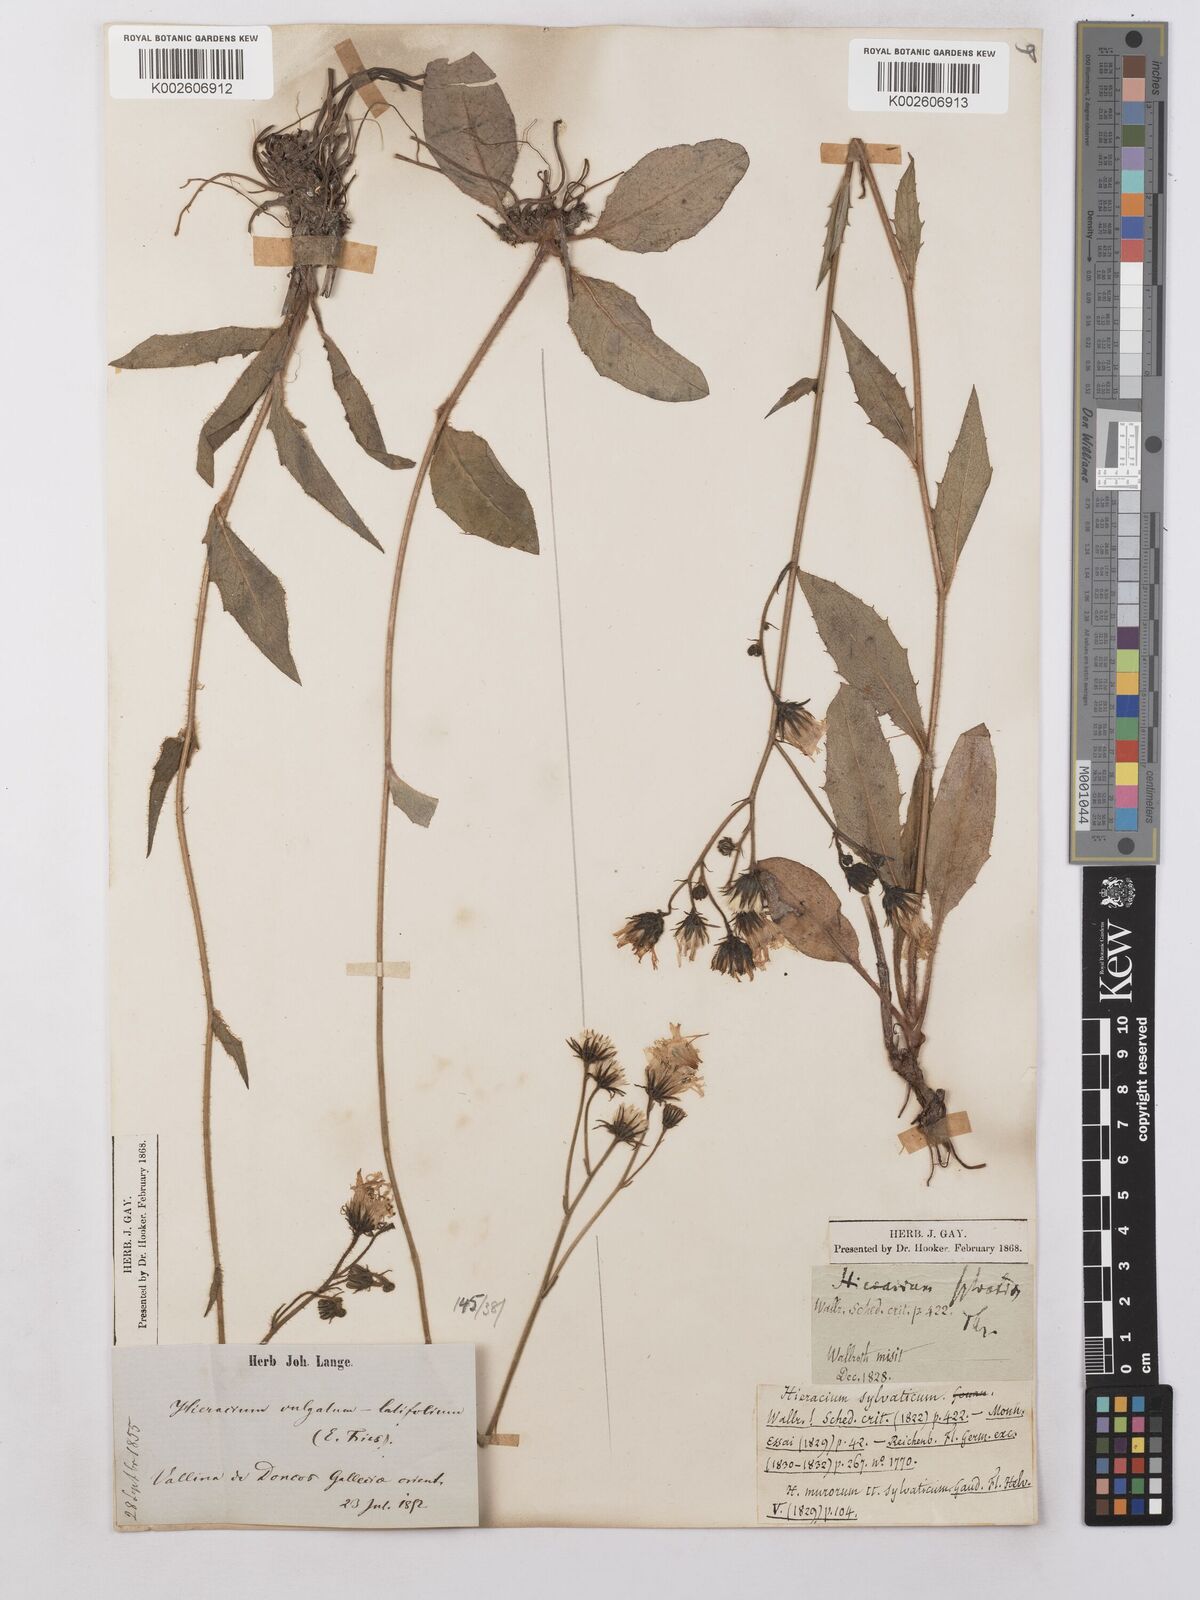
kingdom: Plantae
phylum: Tracheophyta
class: Magnoliopsida
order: Asterales
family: Asteraceae
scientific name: Asteraceae
